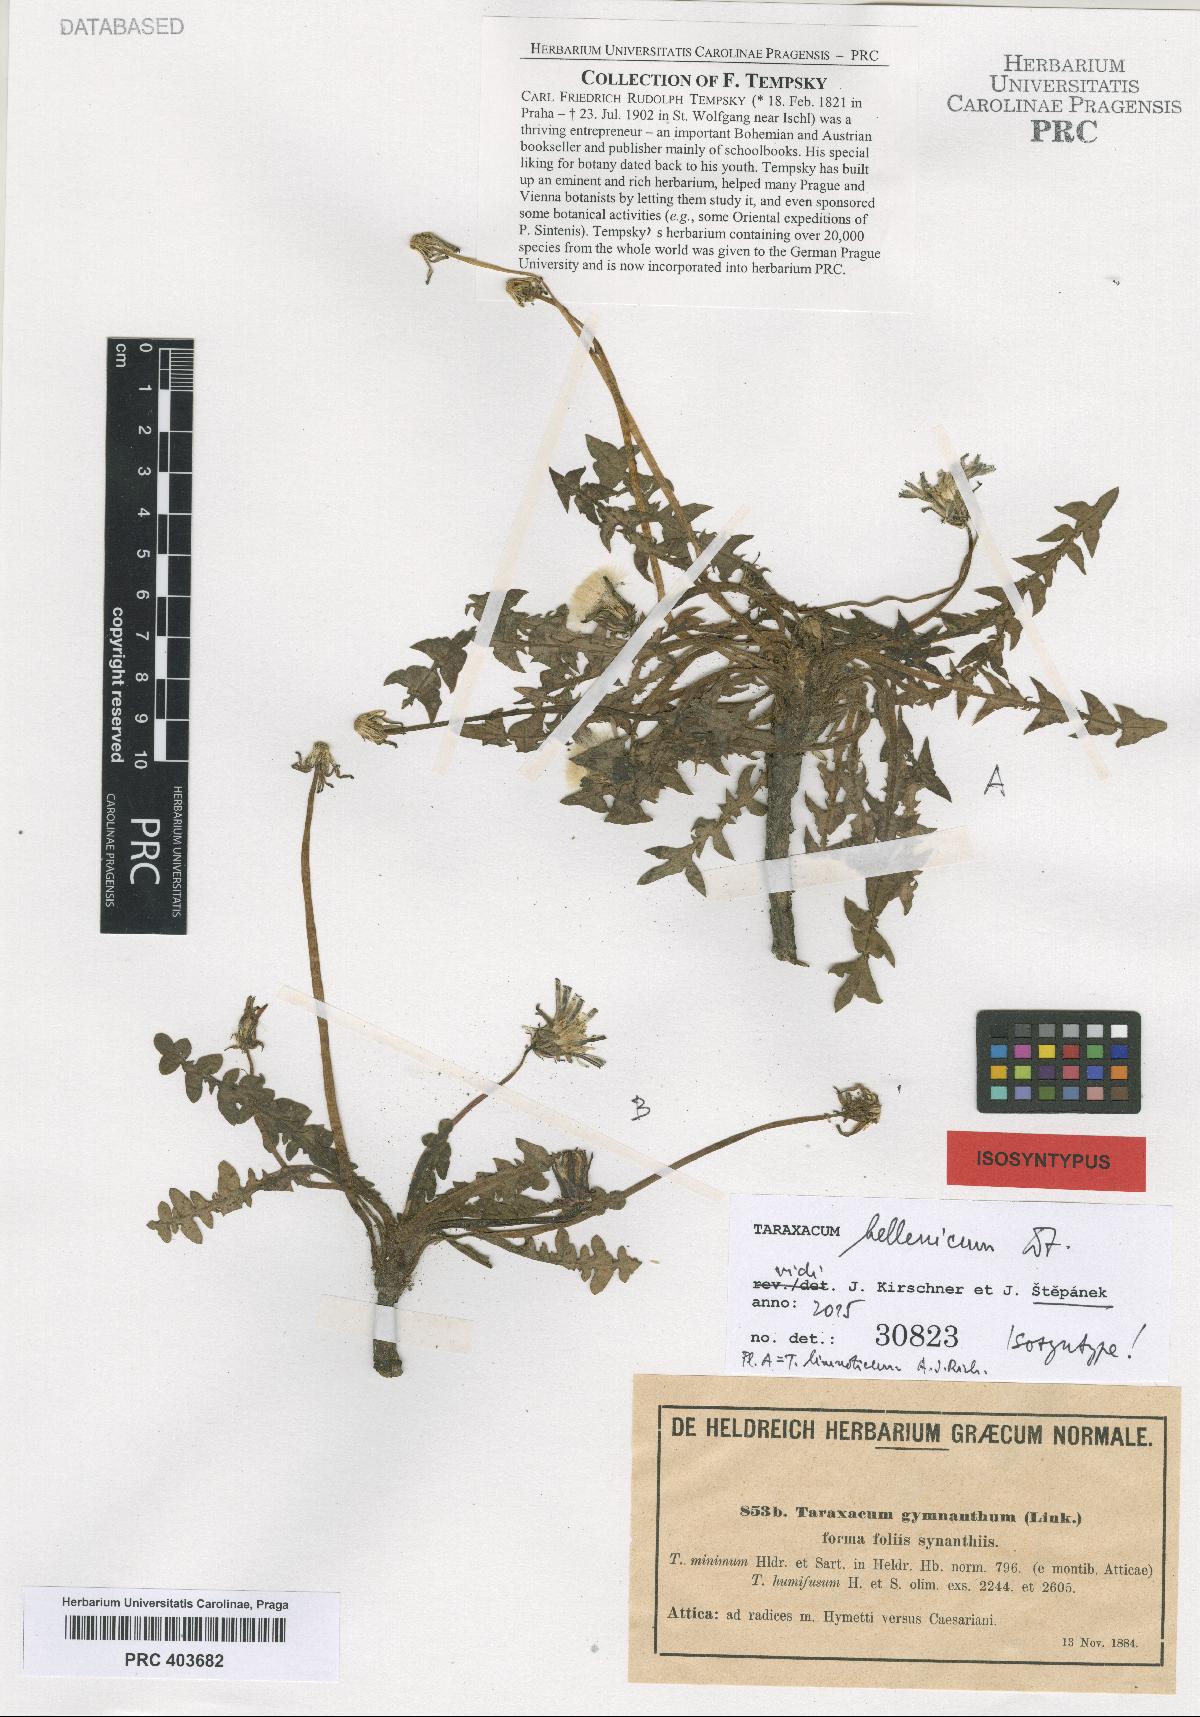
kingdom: Plantae
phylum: Tracheophyta
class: Magnoliopsida
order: Asterales
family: Asteraceae
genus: Taraxacum
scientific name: Taraxacum hellenicum
